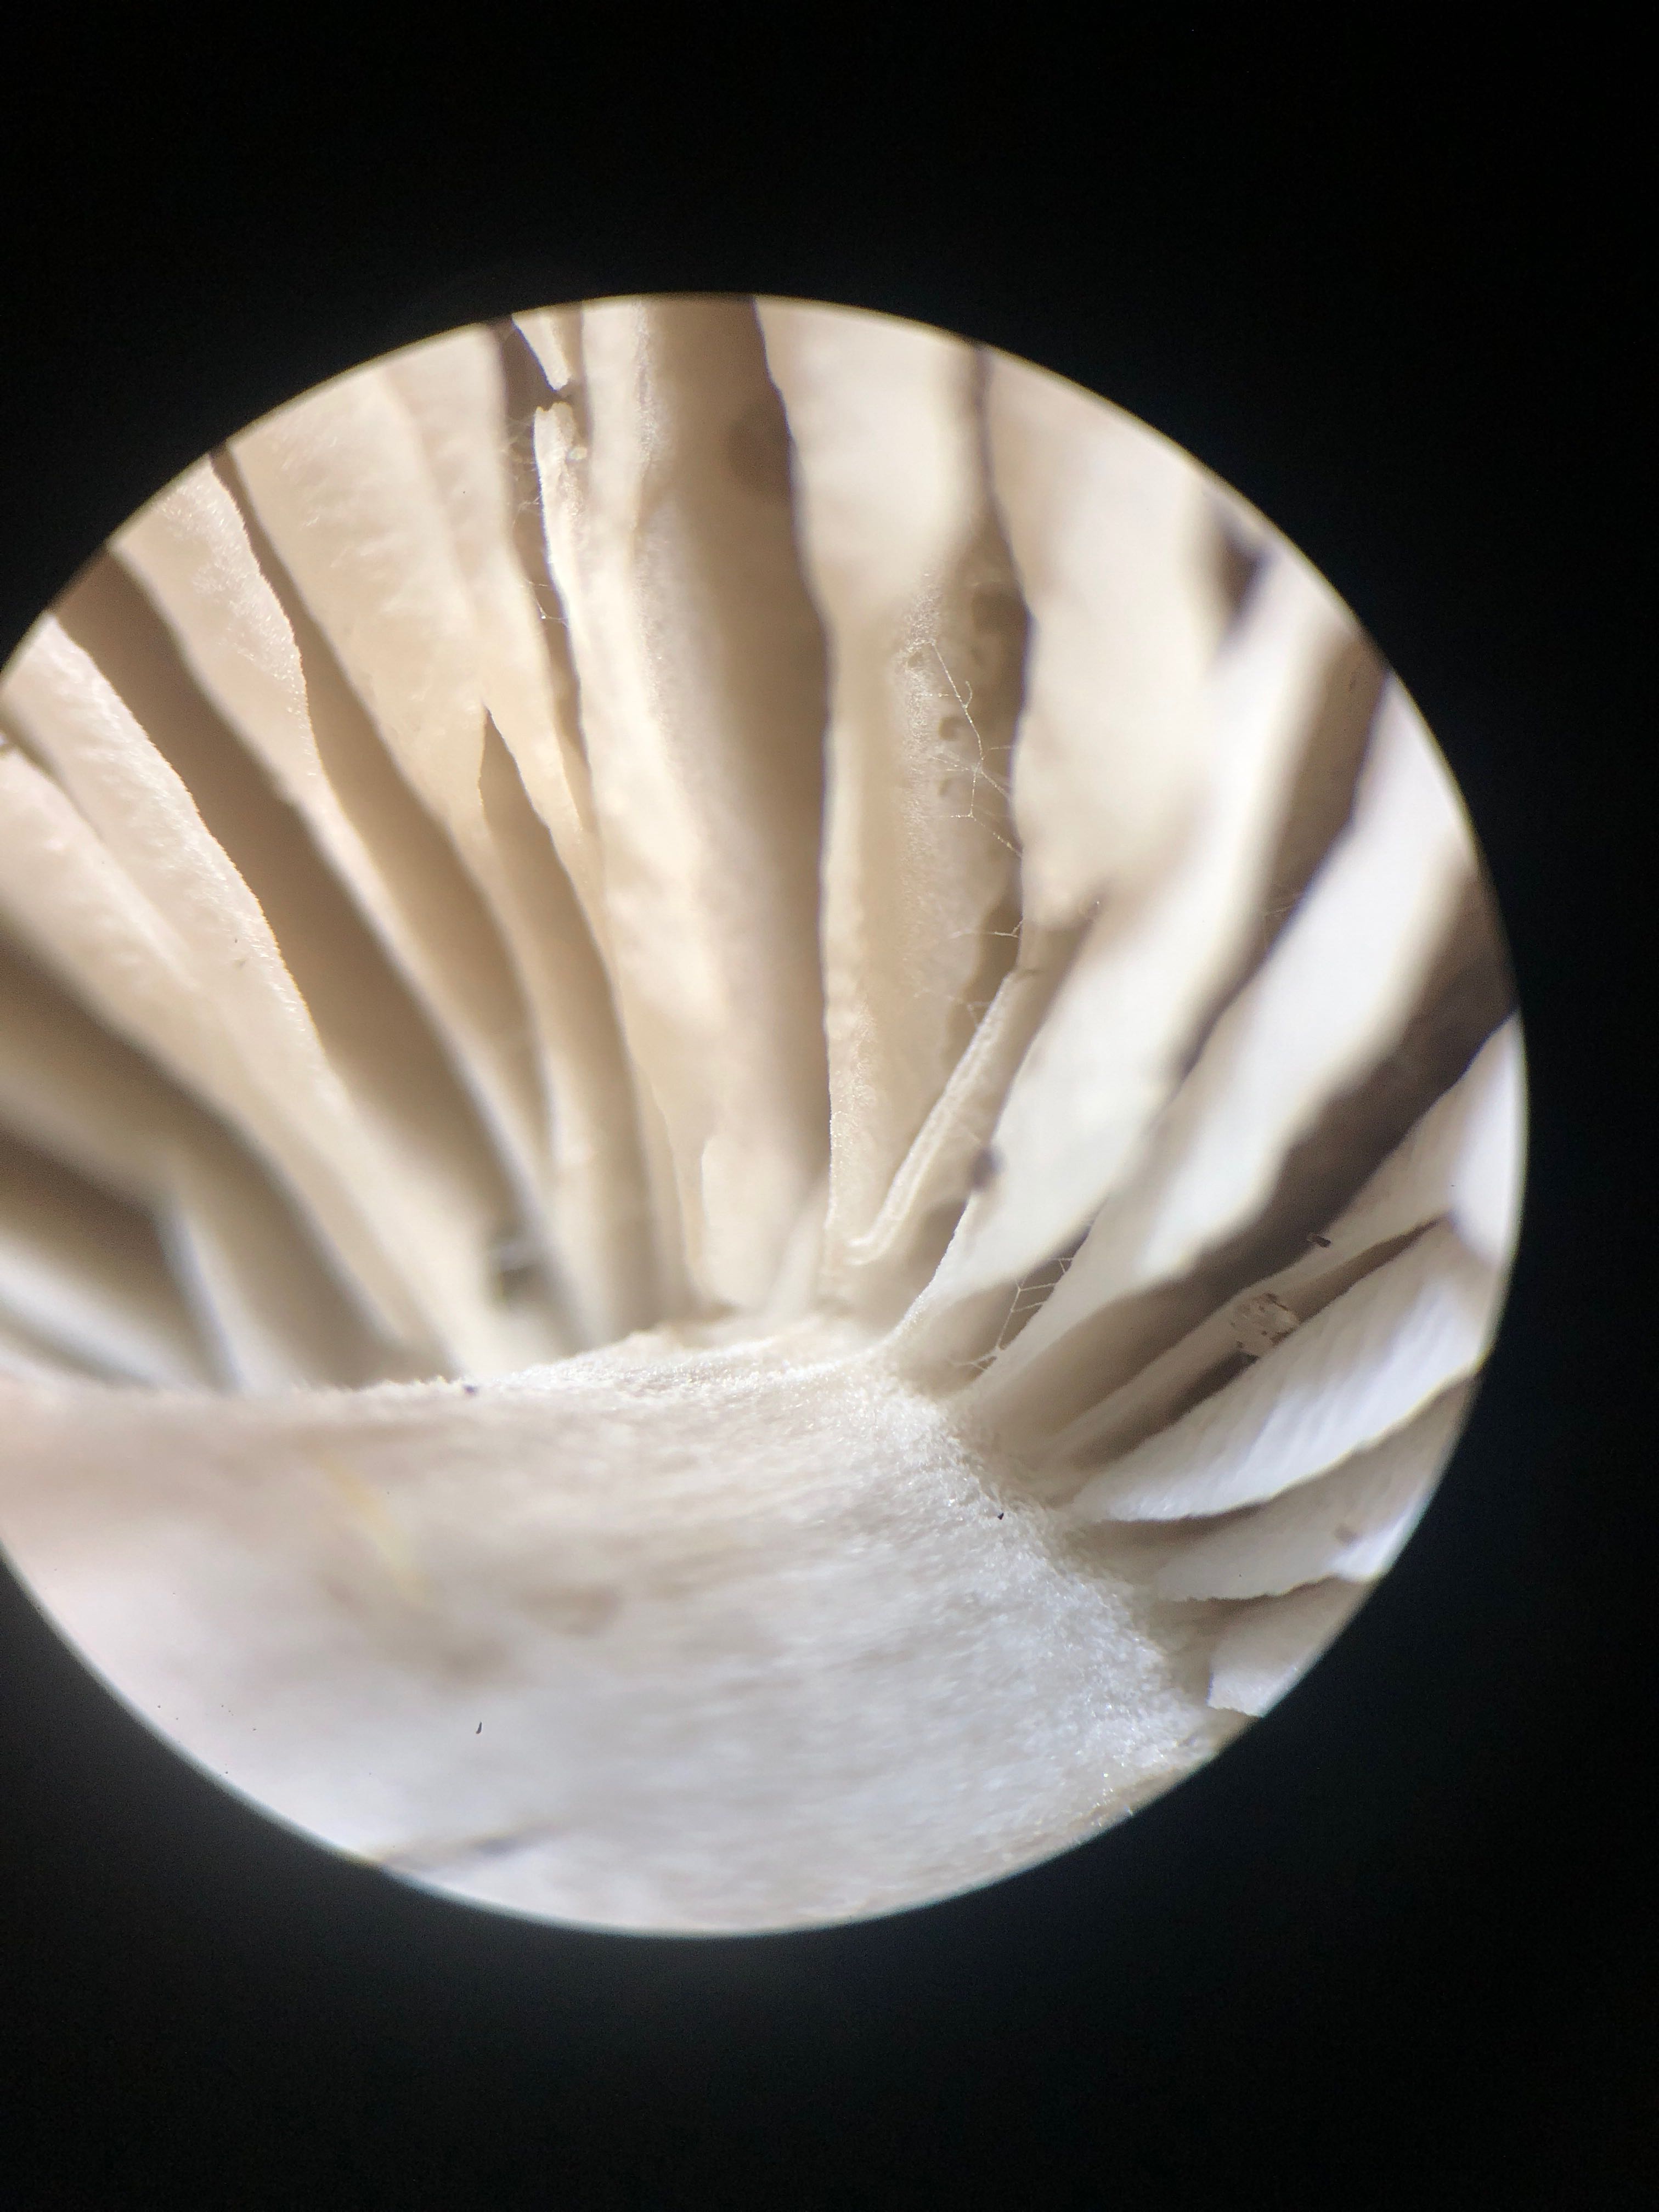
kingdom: Fungi
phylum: Basidiomycota
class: Agaricomycetes
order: Agaricales
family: Tricholomataceae
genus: Dermoloma
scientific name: Dermoloma cuneifolium
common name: eng-nonnehat
